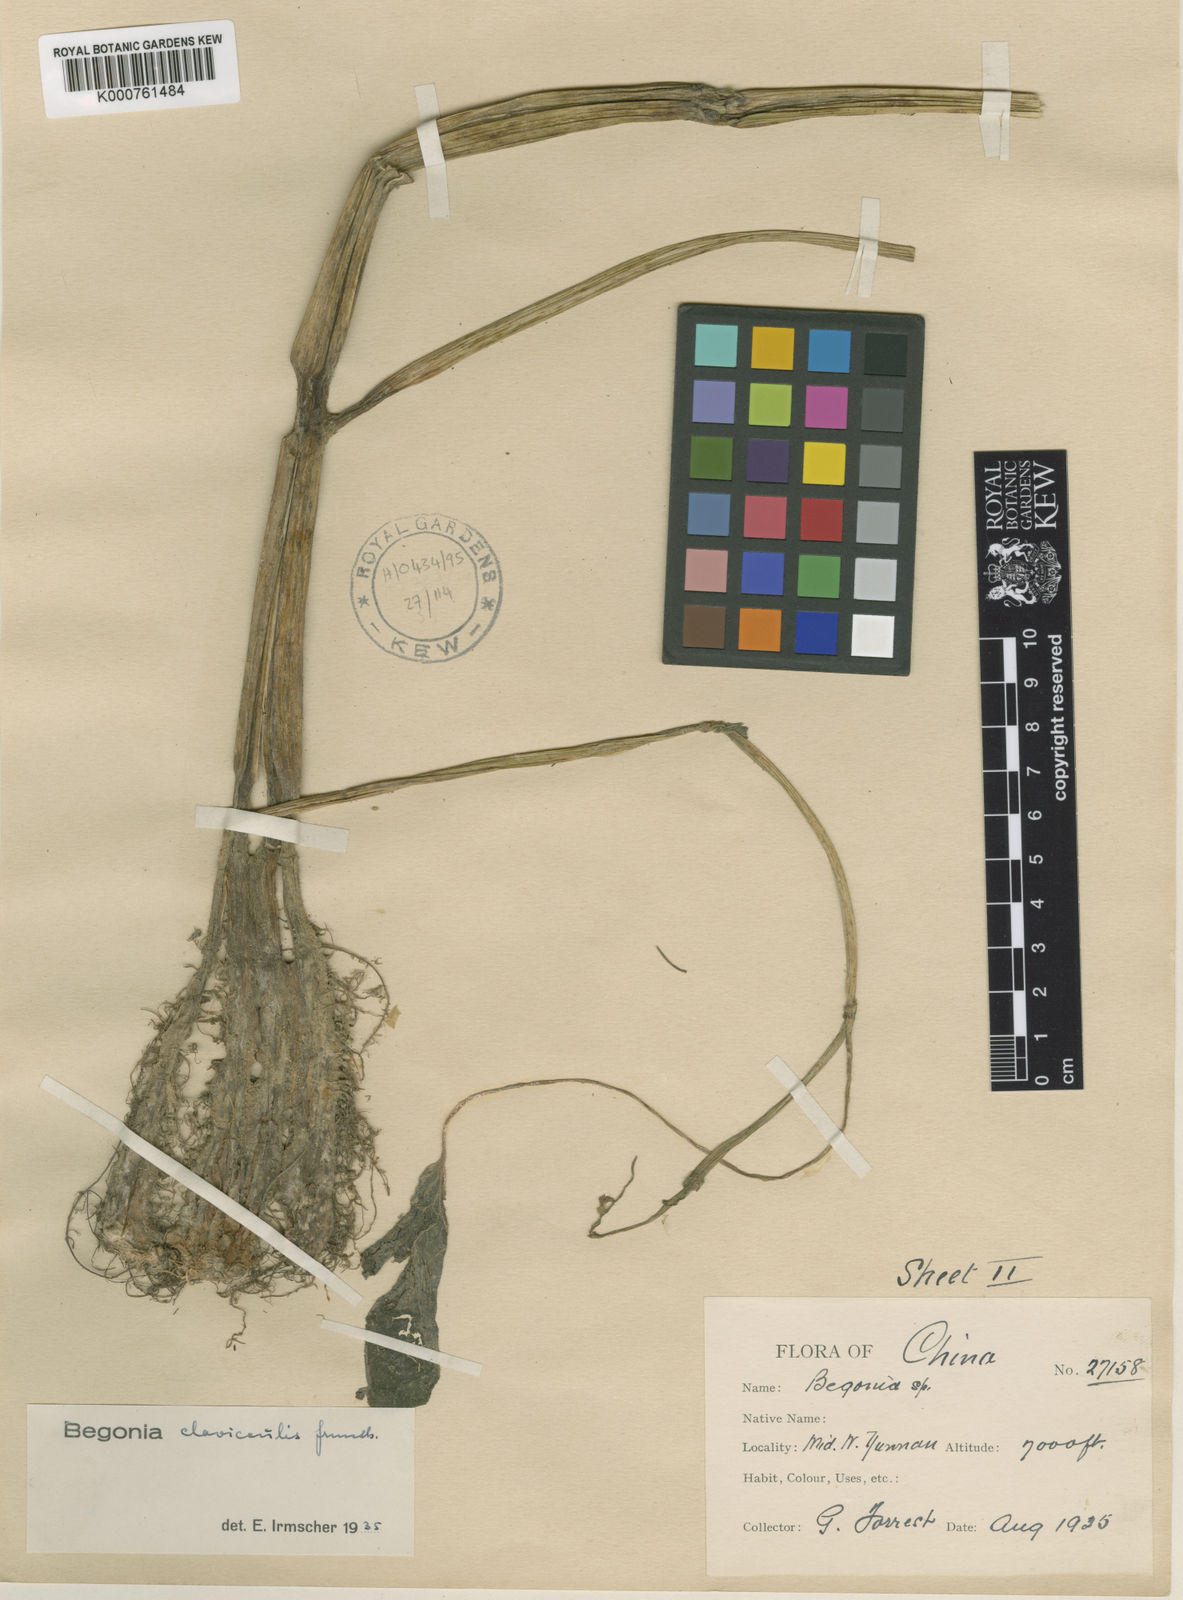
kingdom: Plantae
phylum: Tracheophyta
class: Magnoliopsida
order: Cucurbitales
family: Begoniaceae
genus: Begonia
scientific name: Begonia clavicaulis
